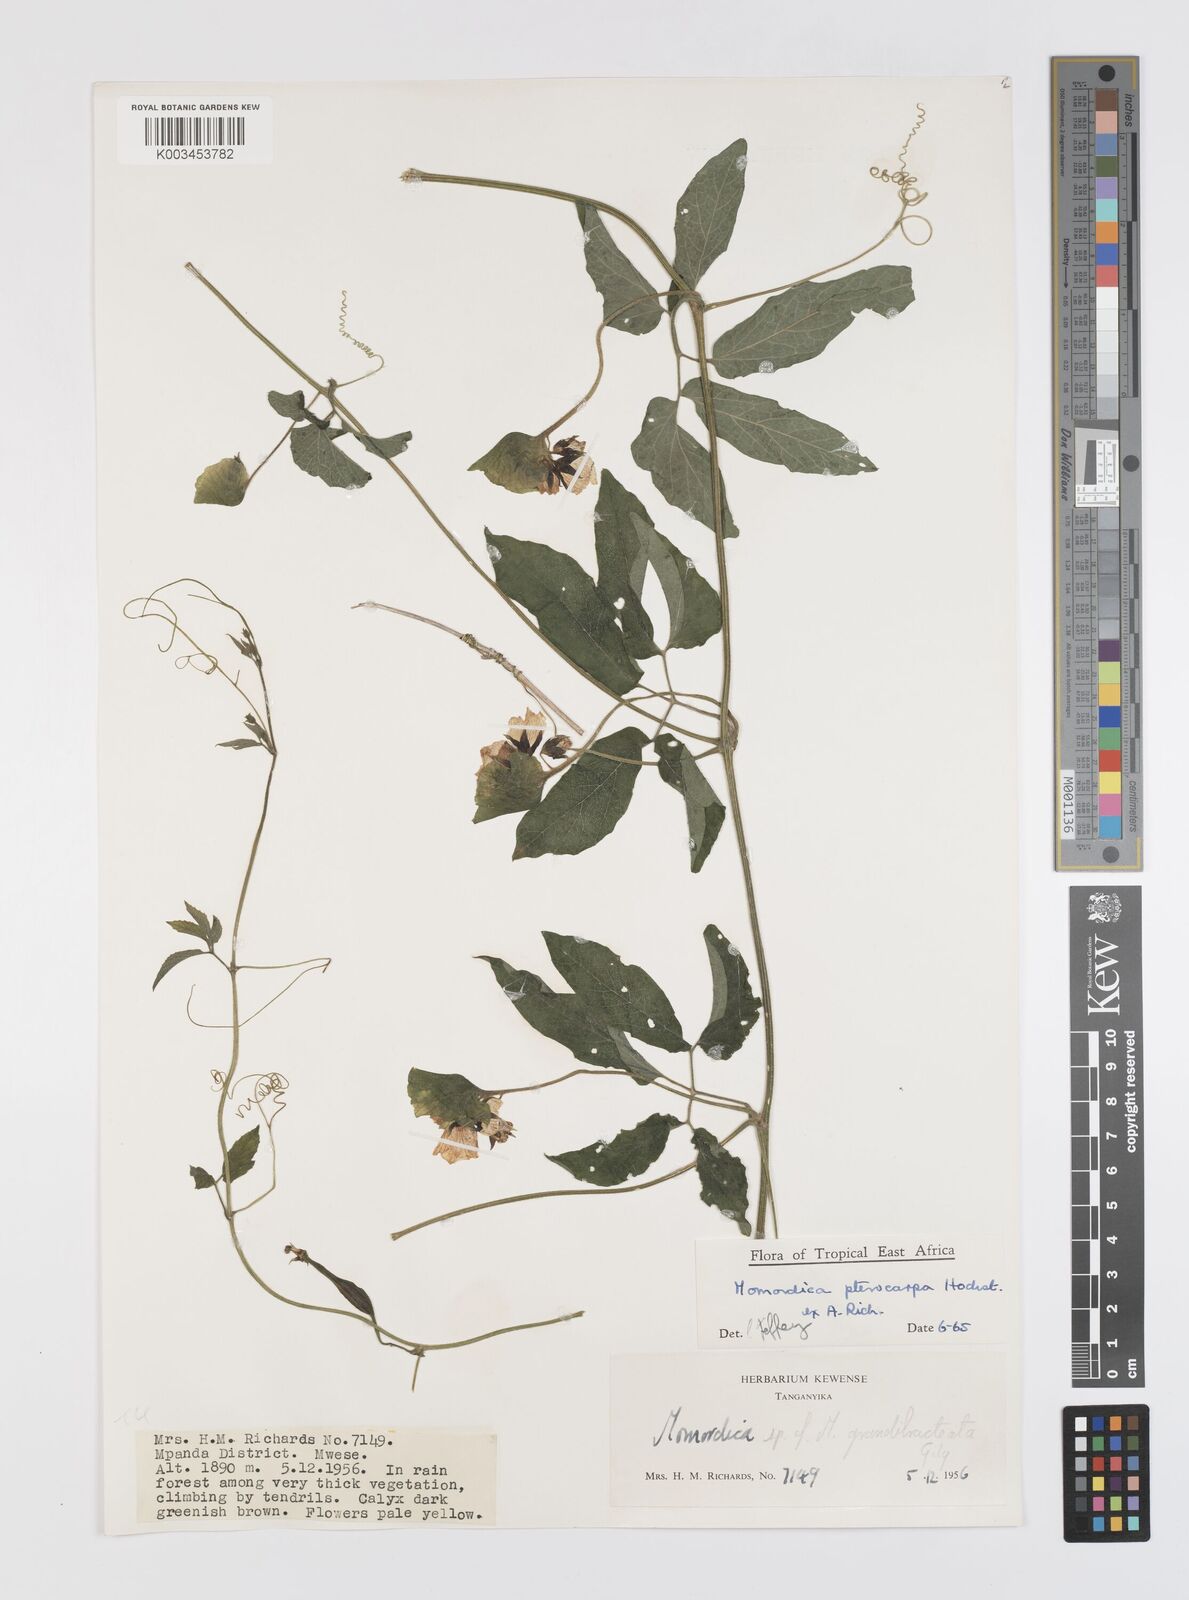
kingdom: Plantae
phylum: Tracheophyta
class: Magnoliopsida
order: Cucurbitales
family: Cucurbitaceae
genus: Momordica
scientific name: Momordica pterocarpa
